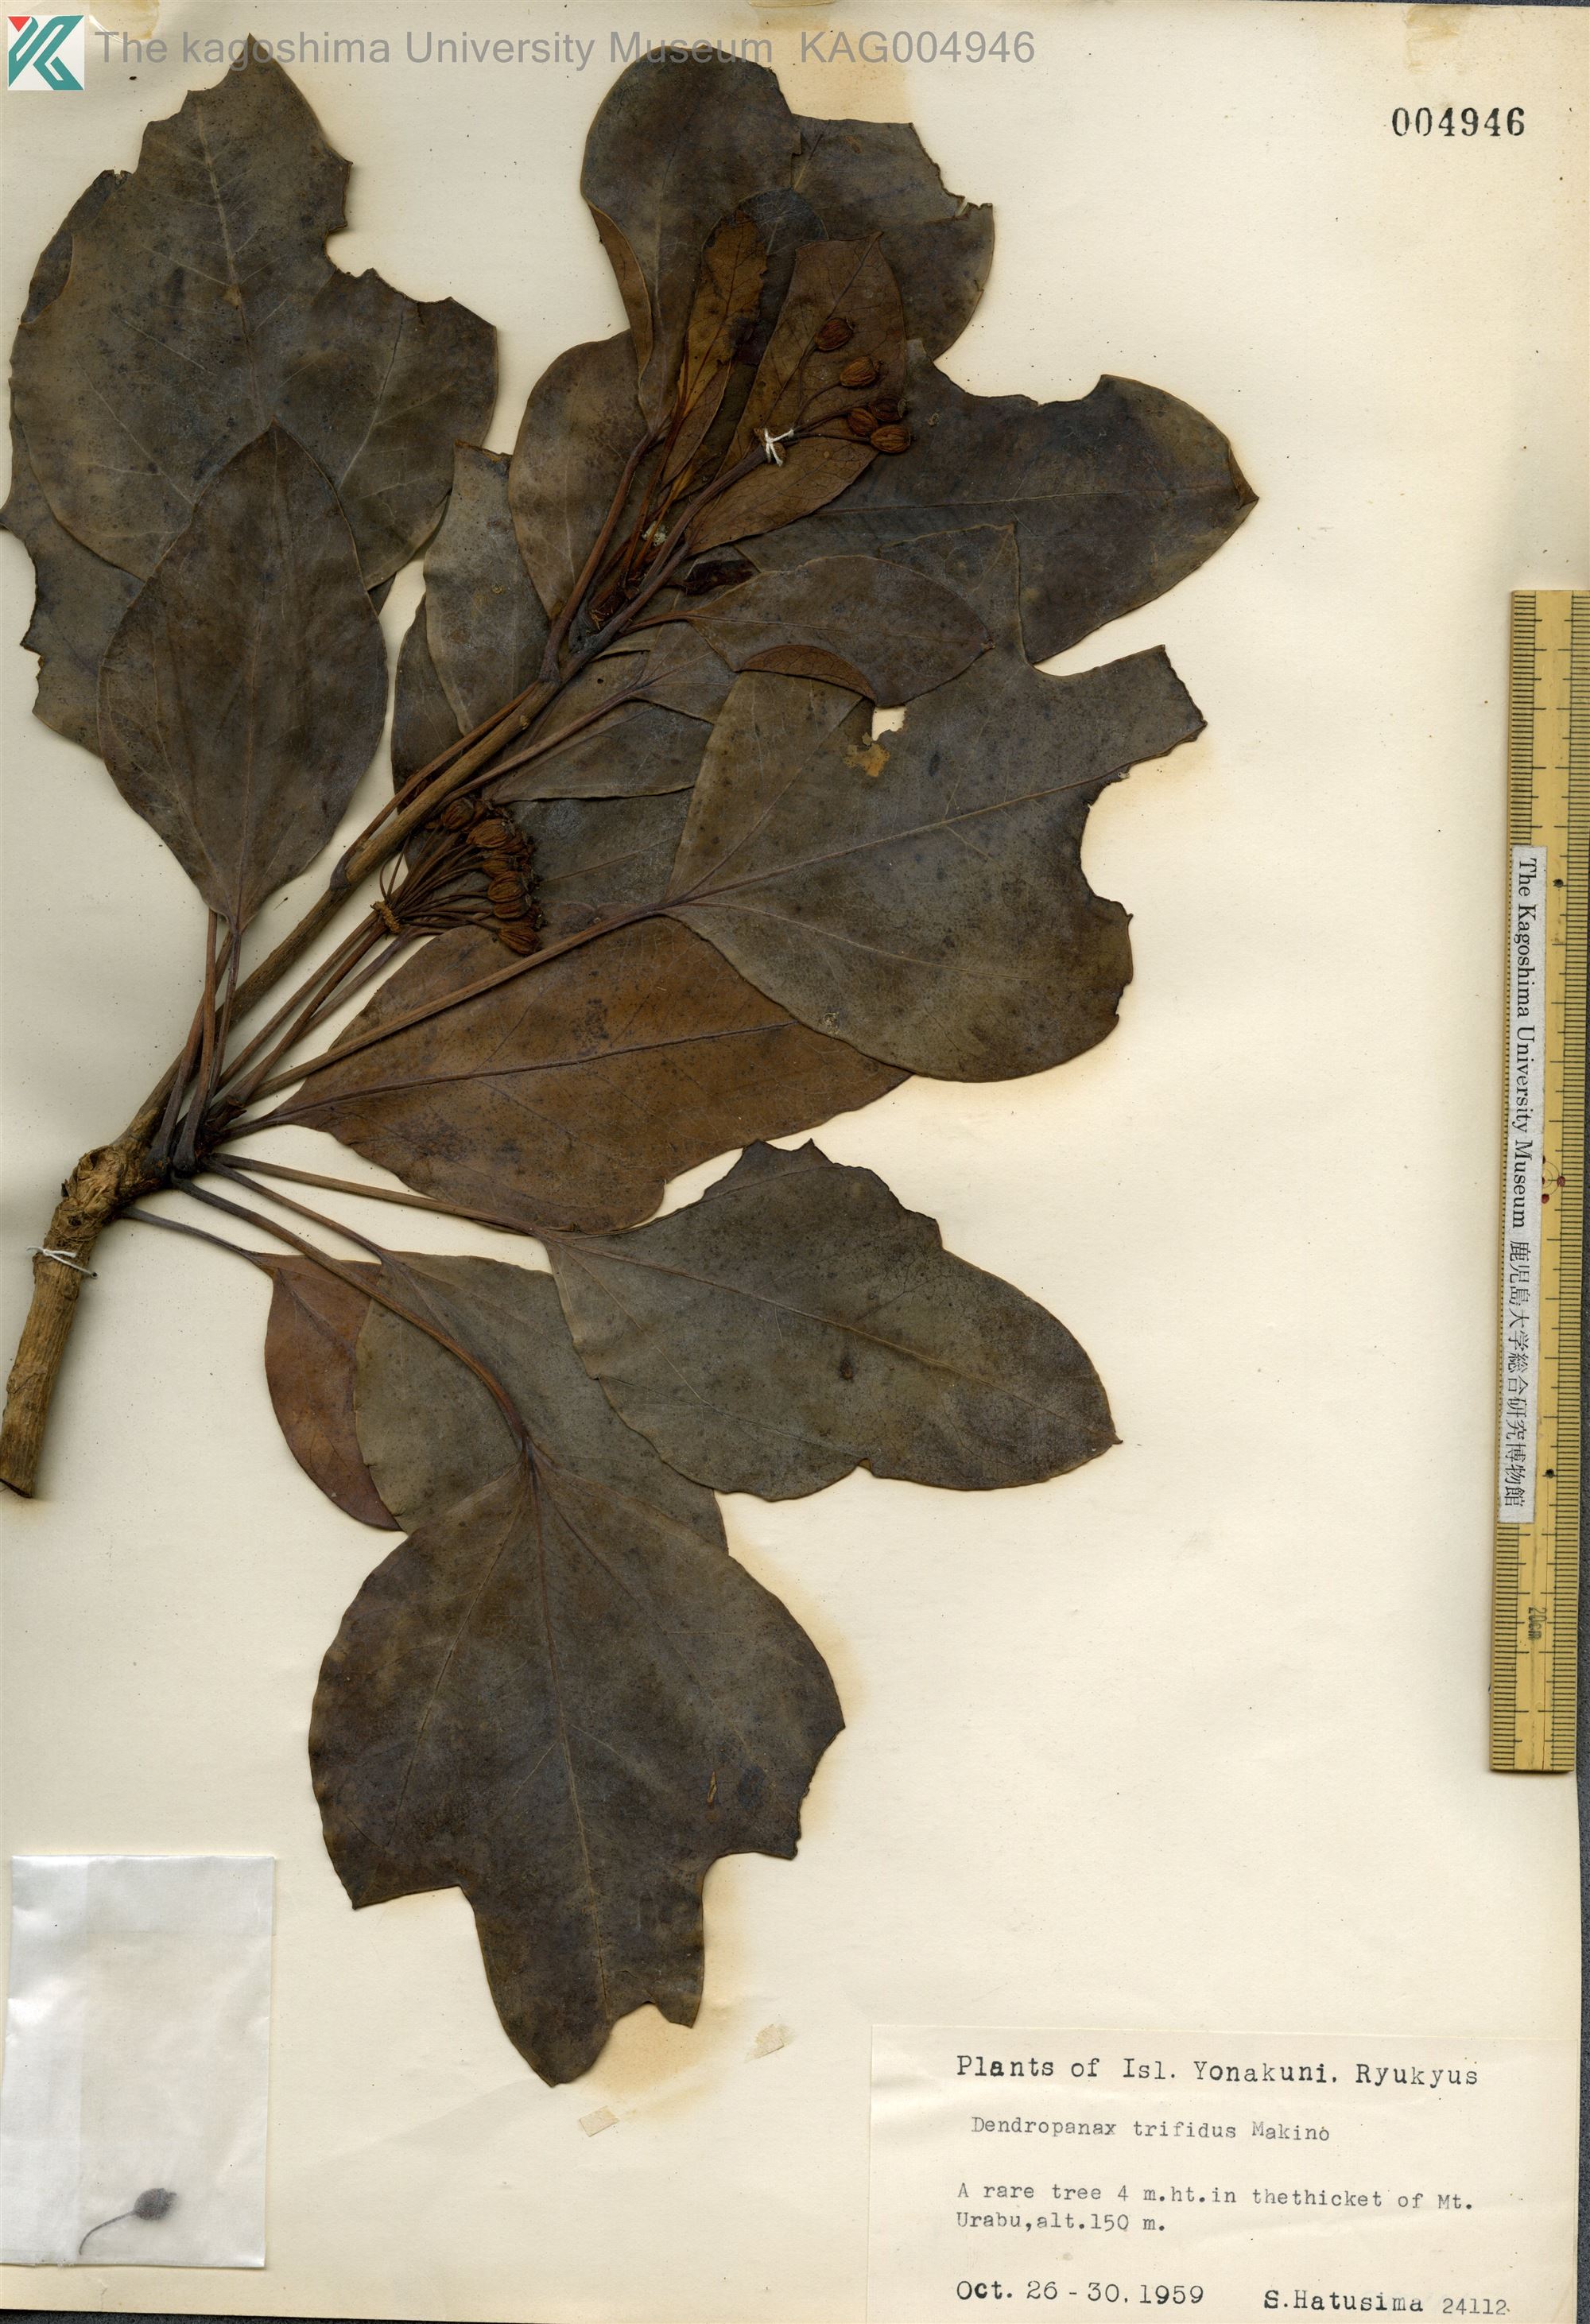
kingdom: Plantae
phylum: Tracheophyta
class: Magnoliopsida
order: Apiales
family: Araliaceae
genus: Dendropanax
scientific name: Dendropanax trifidus
